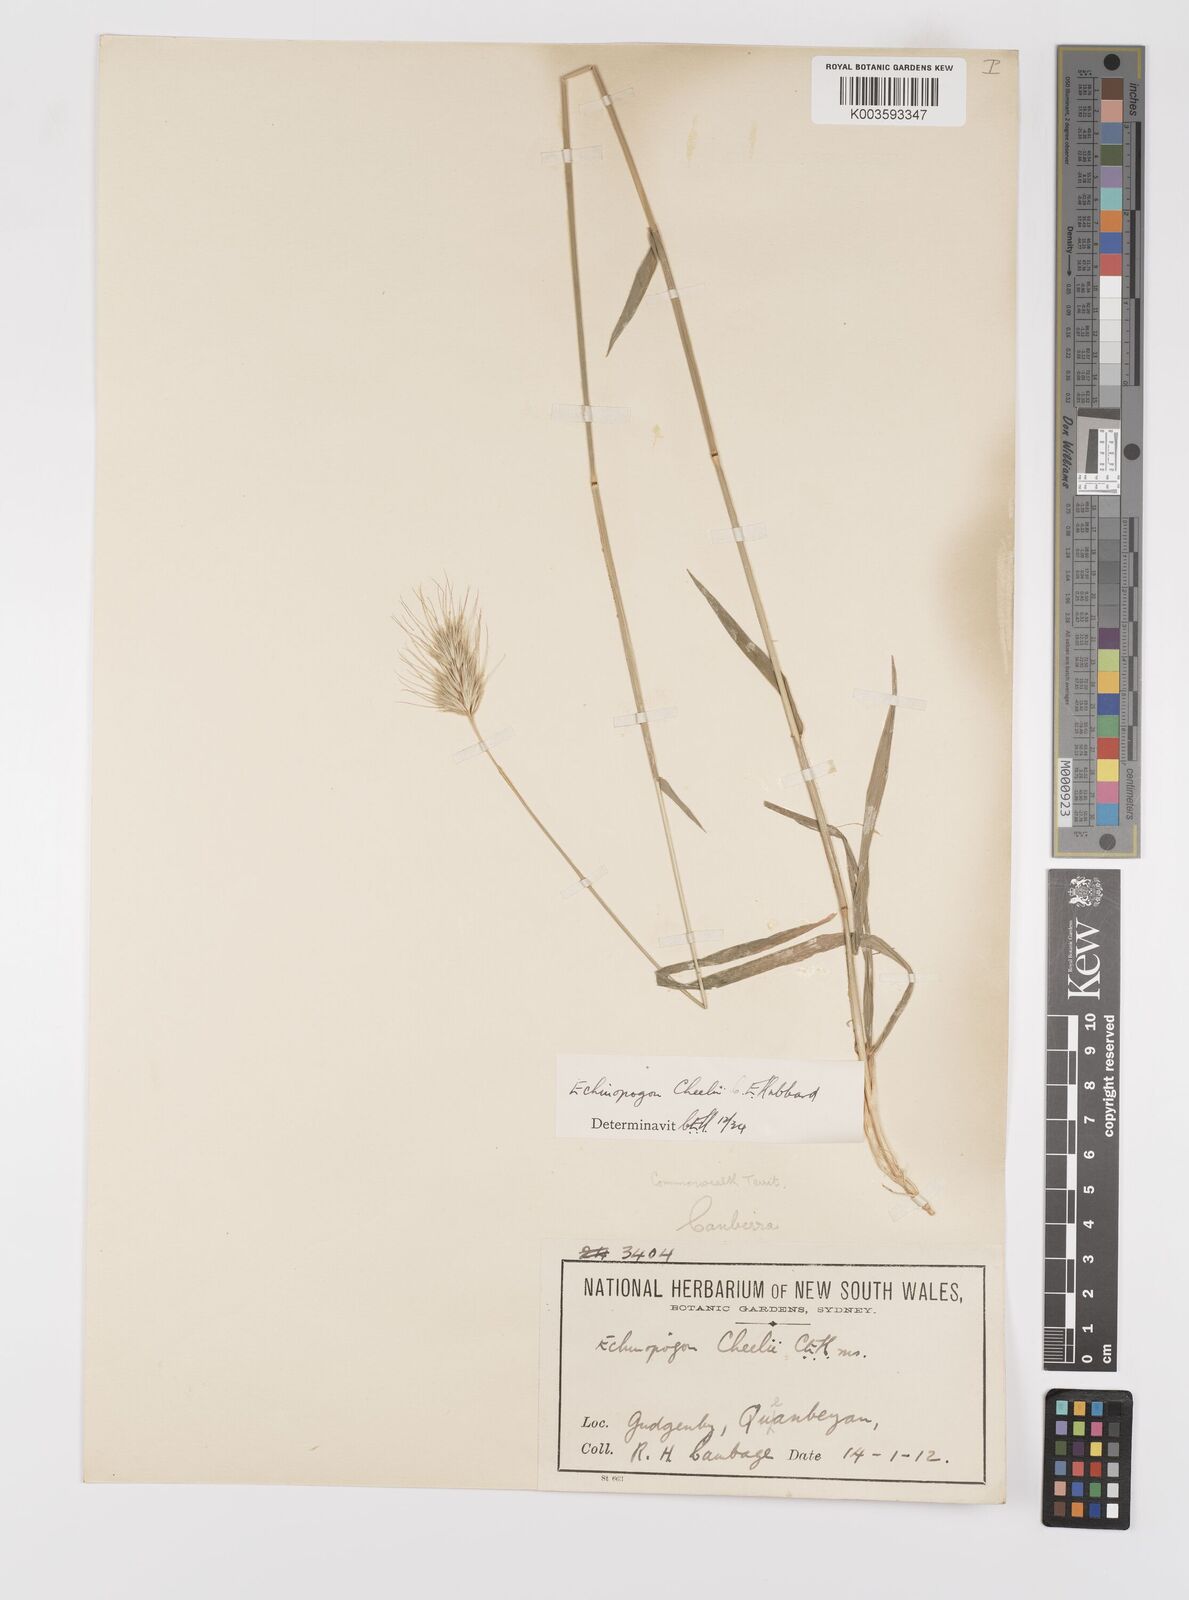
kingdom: Plantae
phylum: Tracheophyta
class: Liliopsida
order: Poales
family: Poaceae
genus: Echinopogon
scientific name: Echinopogon cheelii
